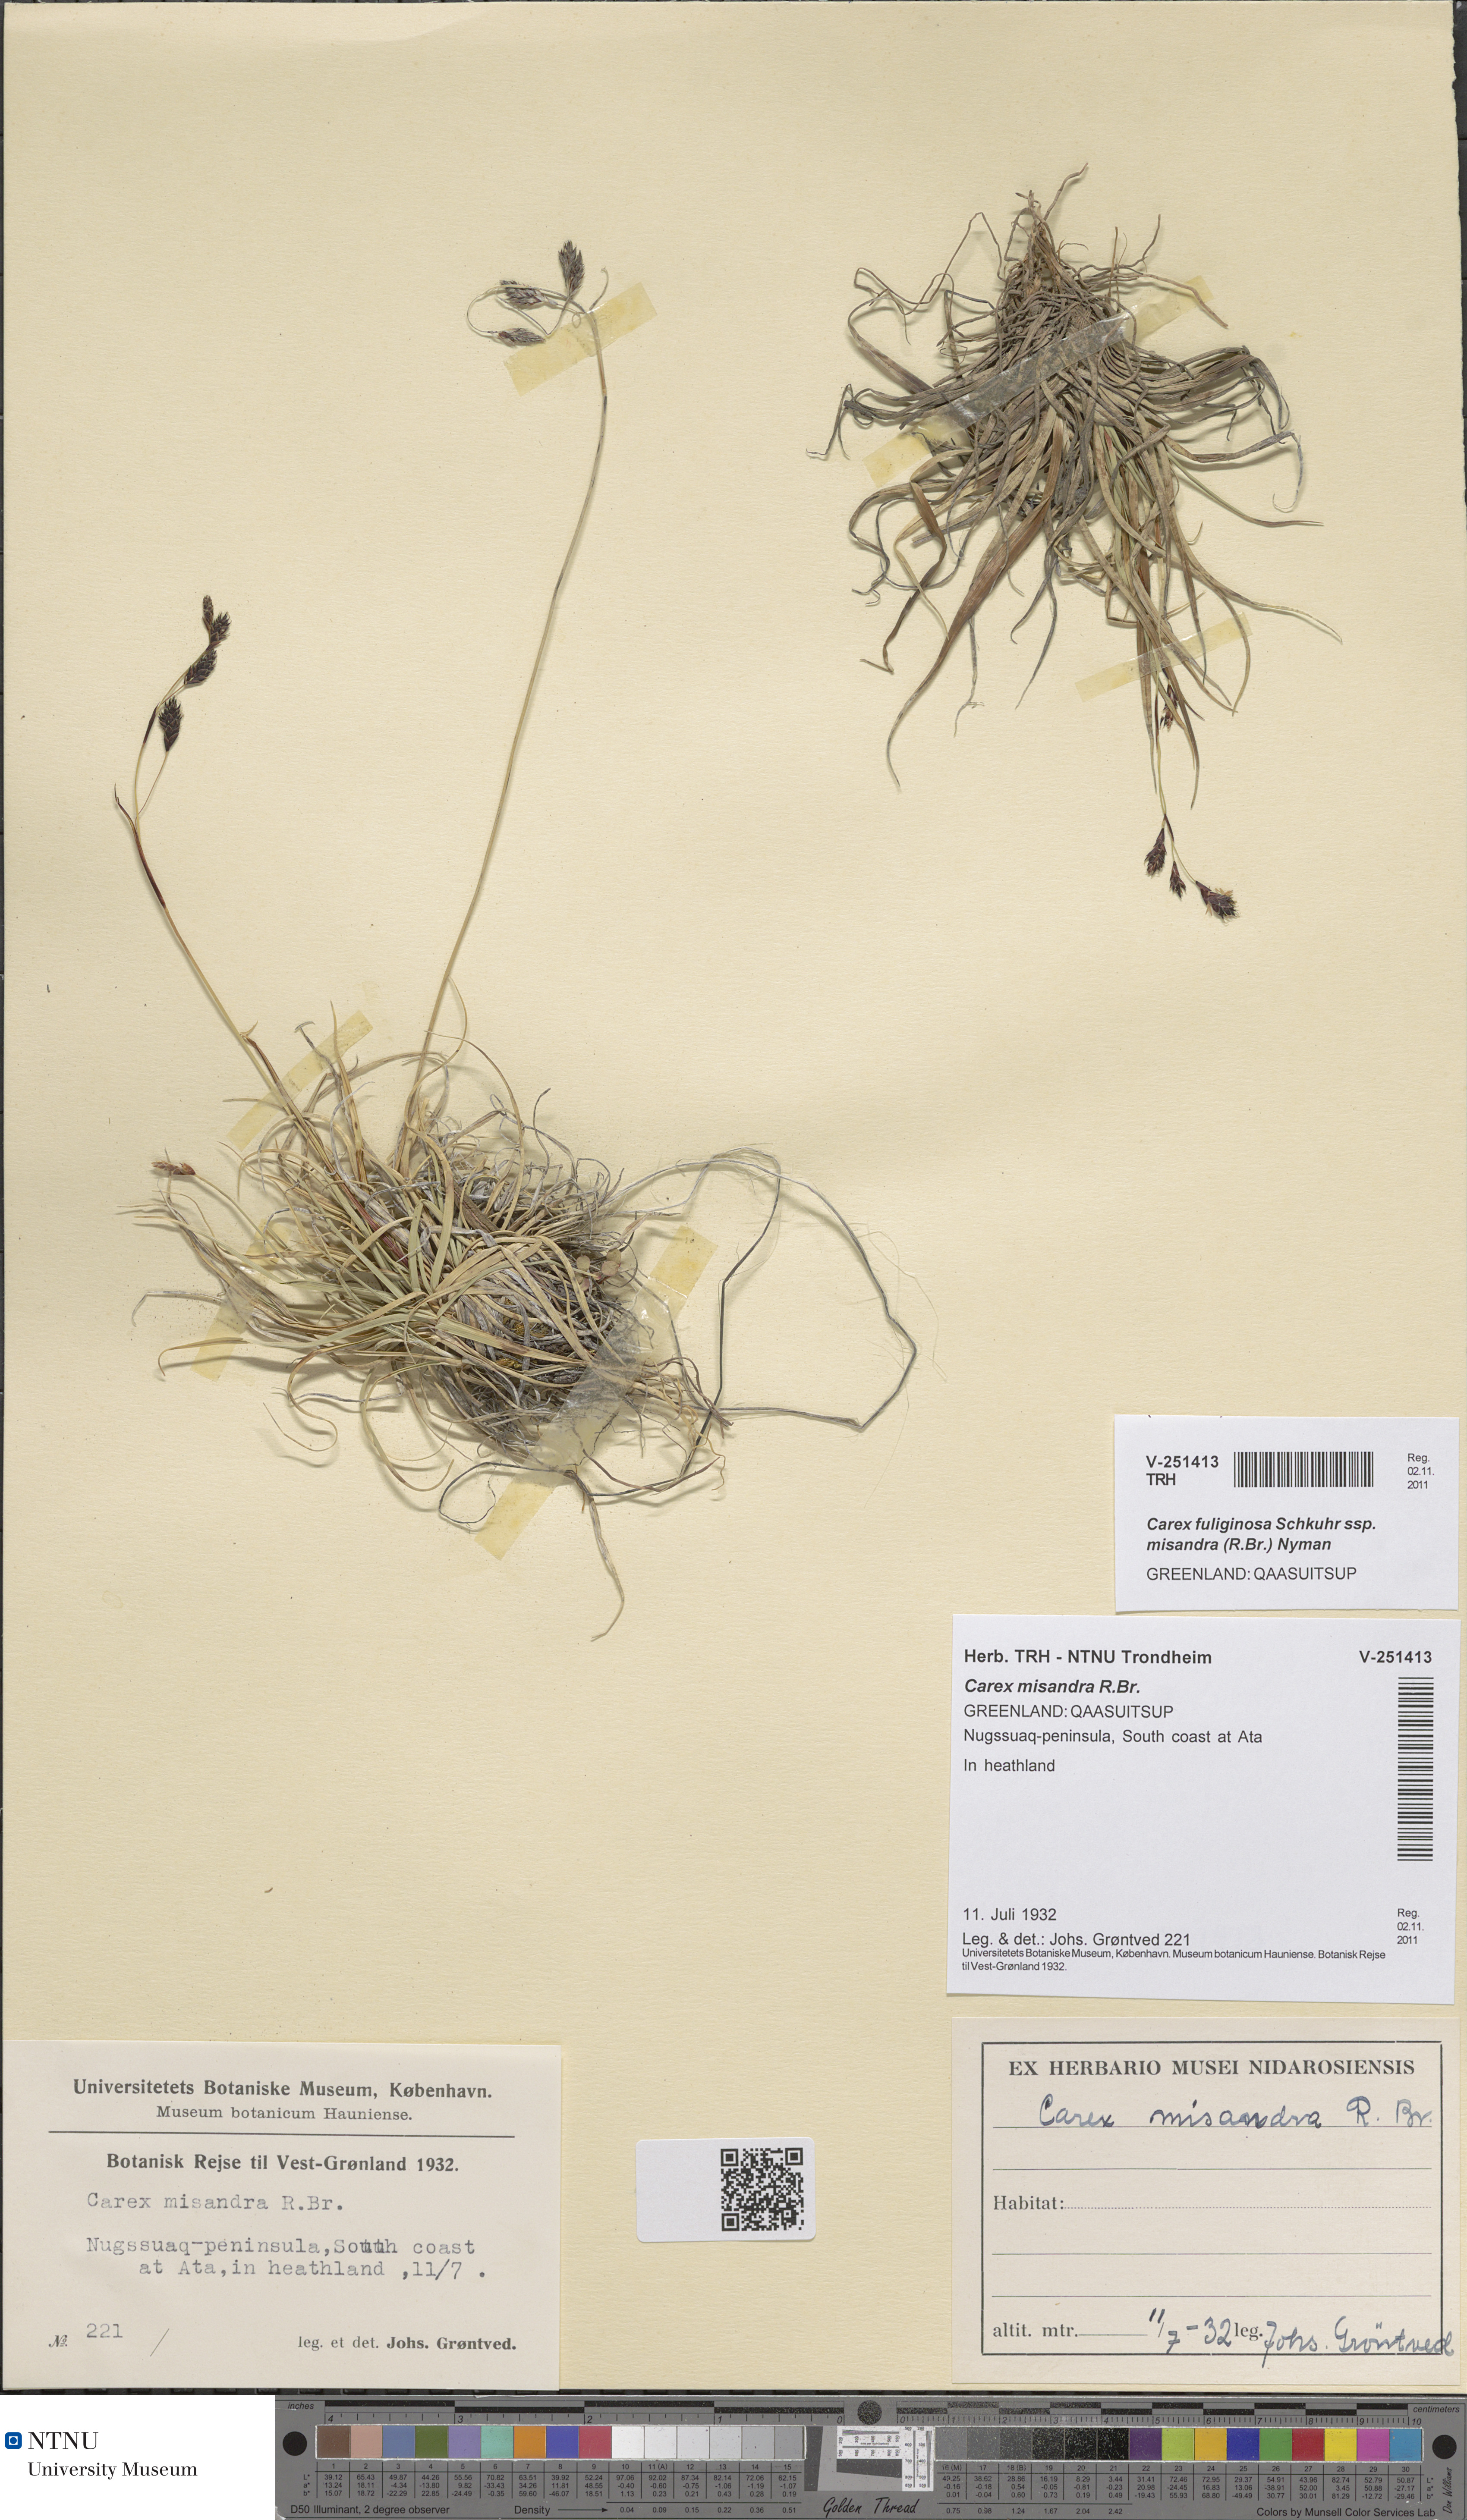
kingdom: Plantae
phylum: Tracheophyta
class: Liliopsida
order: Poales
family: Cyperaceae
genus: Carex
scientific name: Carex fuliginosa
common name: Few-flowered sedge
